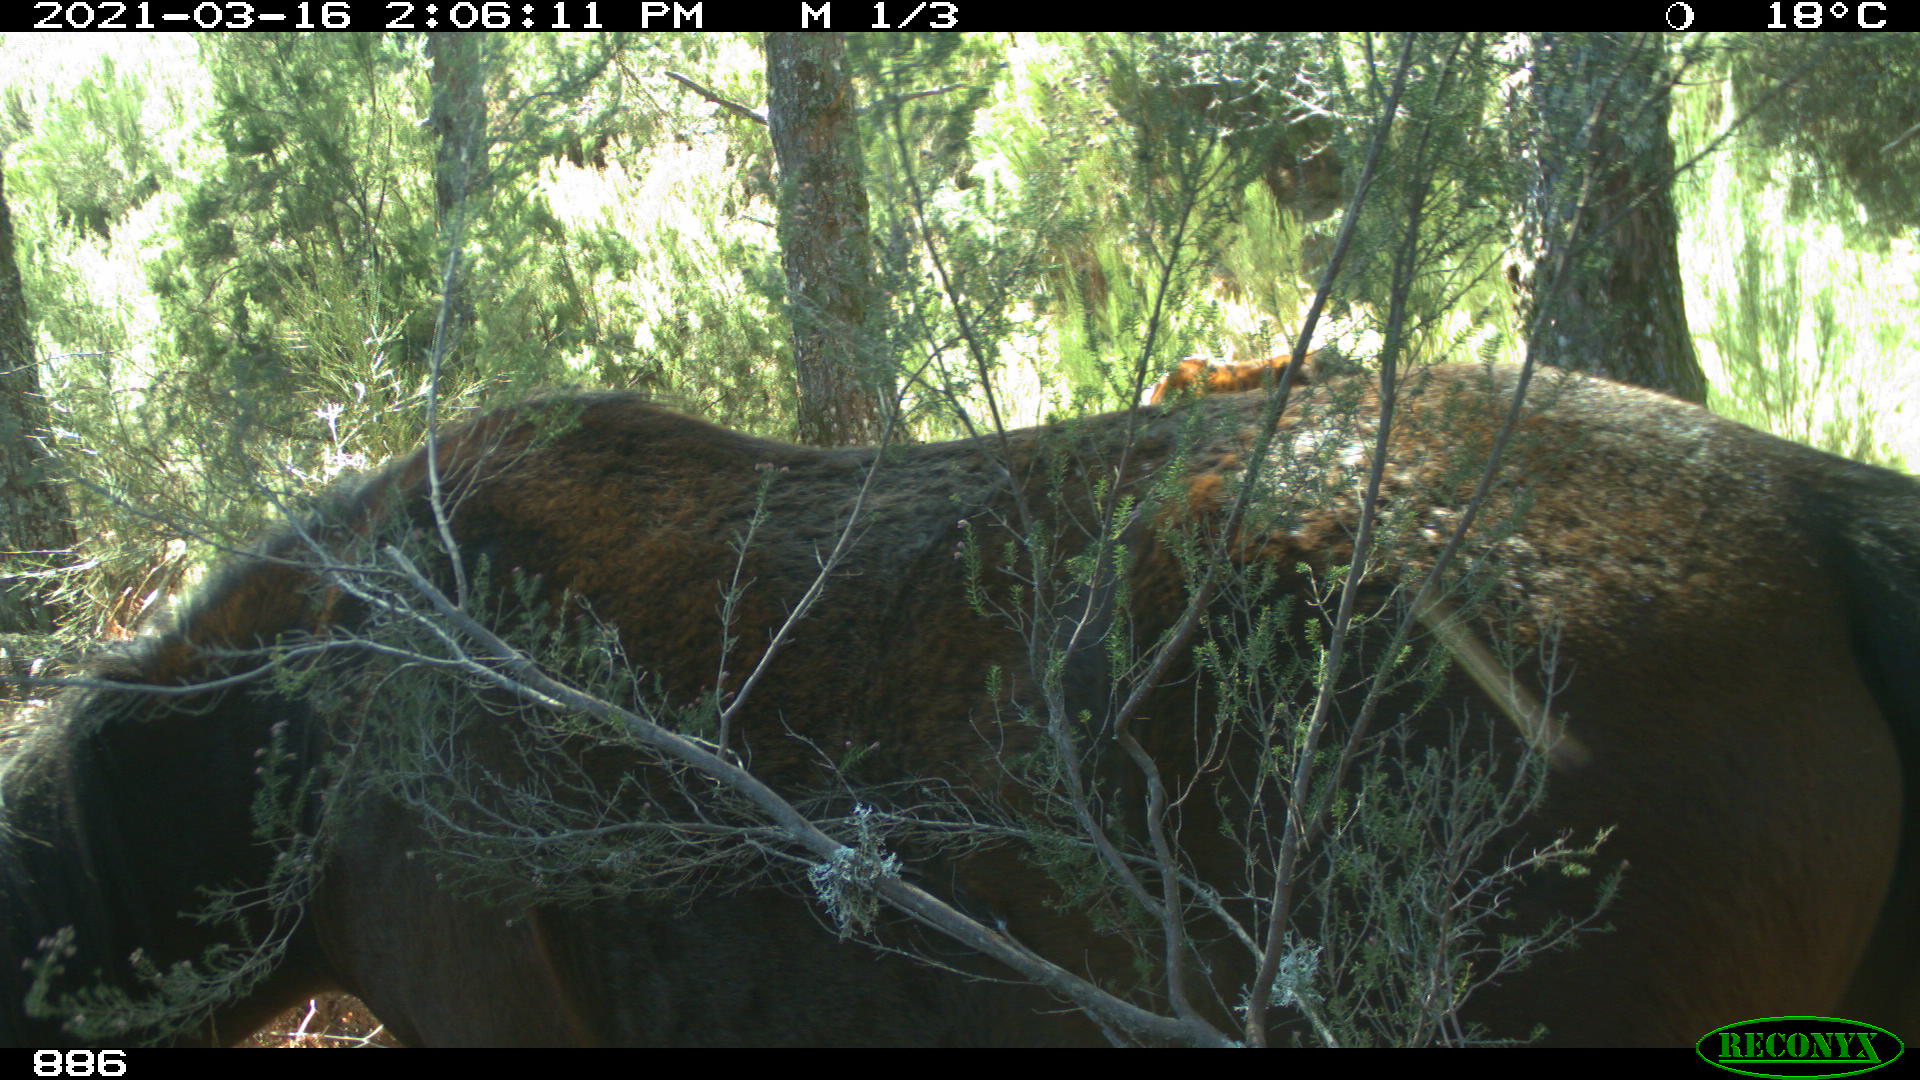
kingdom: Animalia
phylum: Chordata
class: Mammalia
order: Perissodactyla
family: Equidae
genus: Equus
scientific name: Equus caballus
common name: Horse
